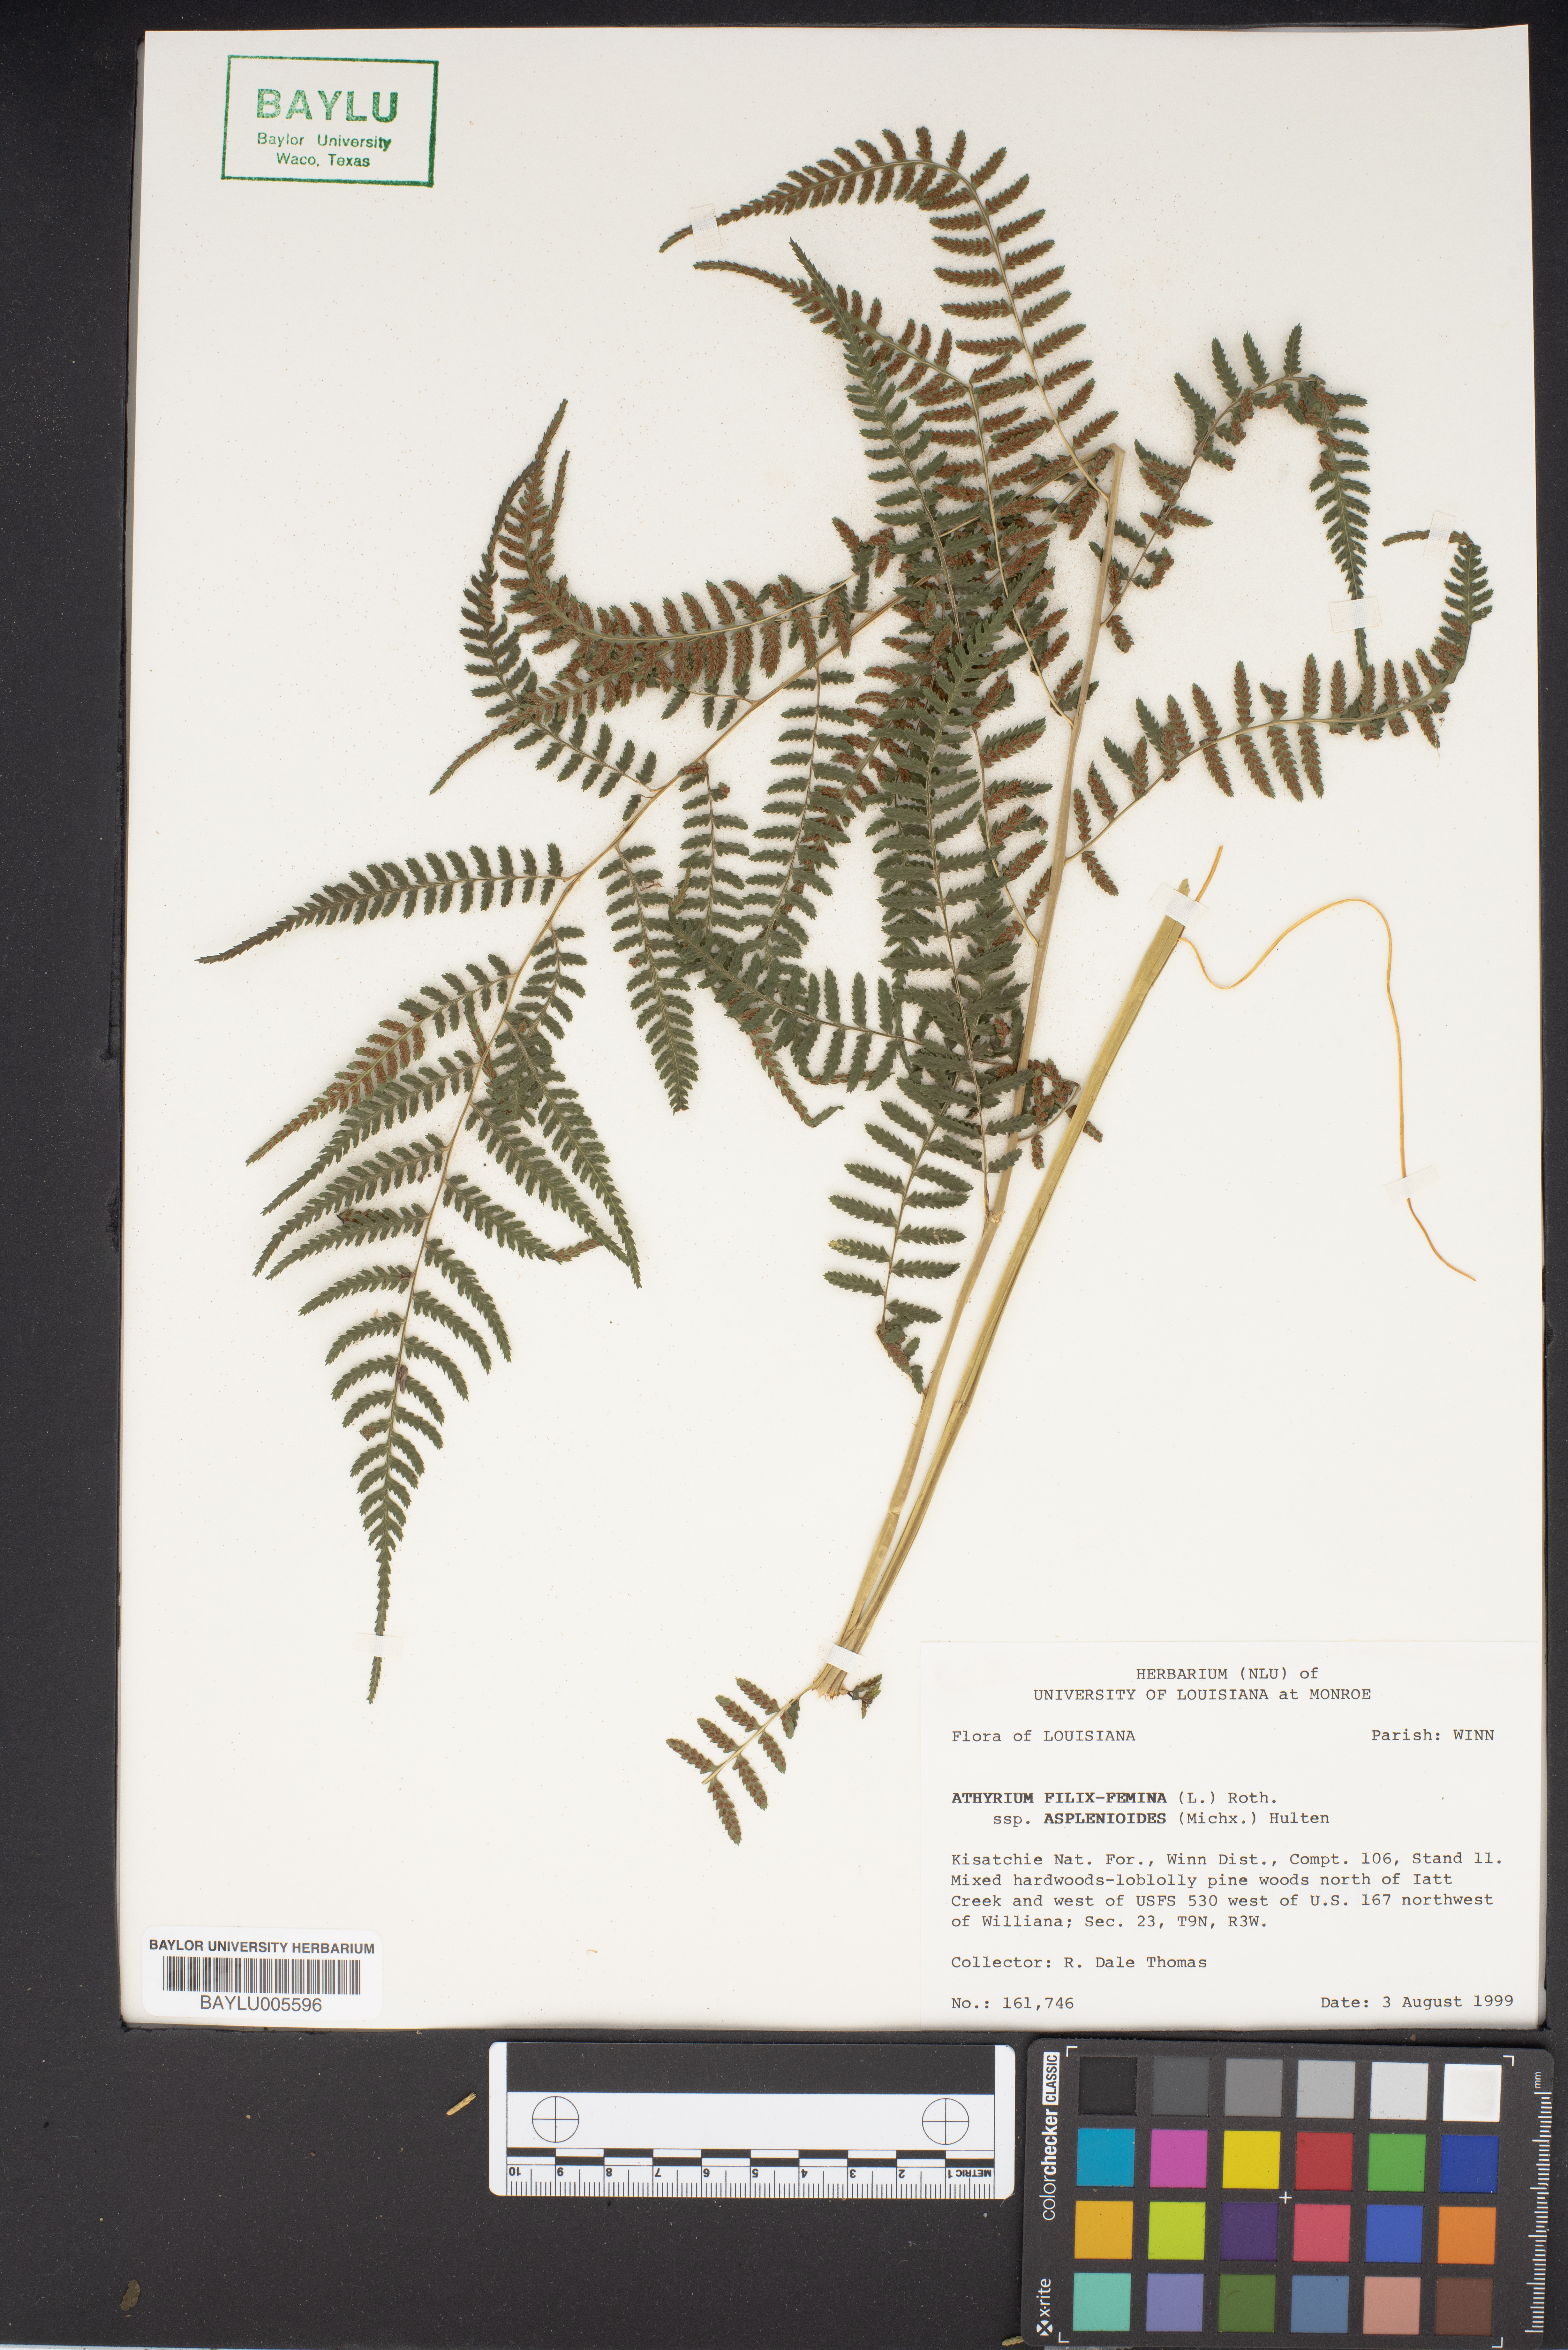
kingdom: Plantae
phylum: Tracheophyta
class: Polypodiopsida
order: Polypodiales
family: Athyriaceae
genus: Athyrium
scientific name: Athyrium asplenioides
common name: Southern lady fern
